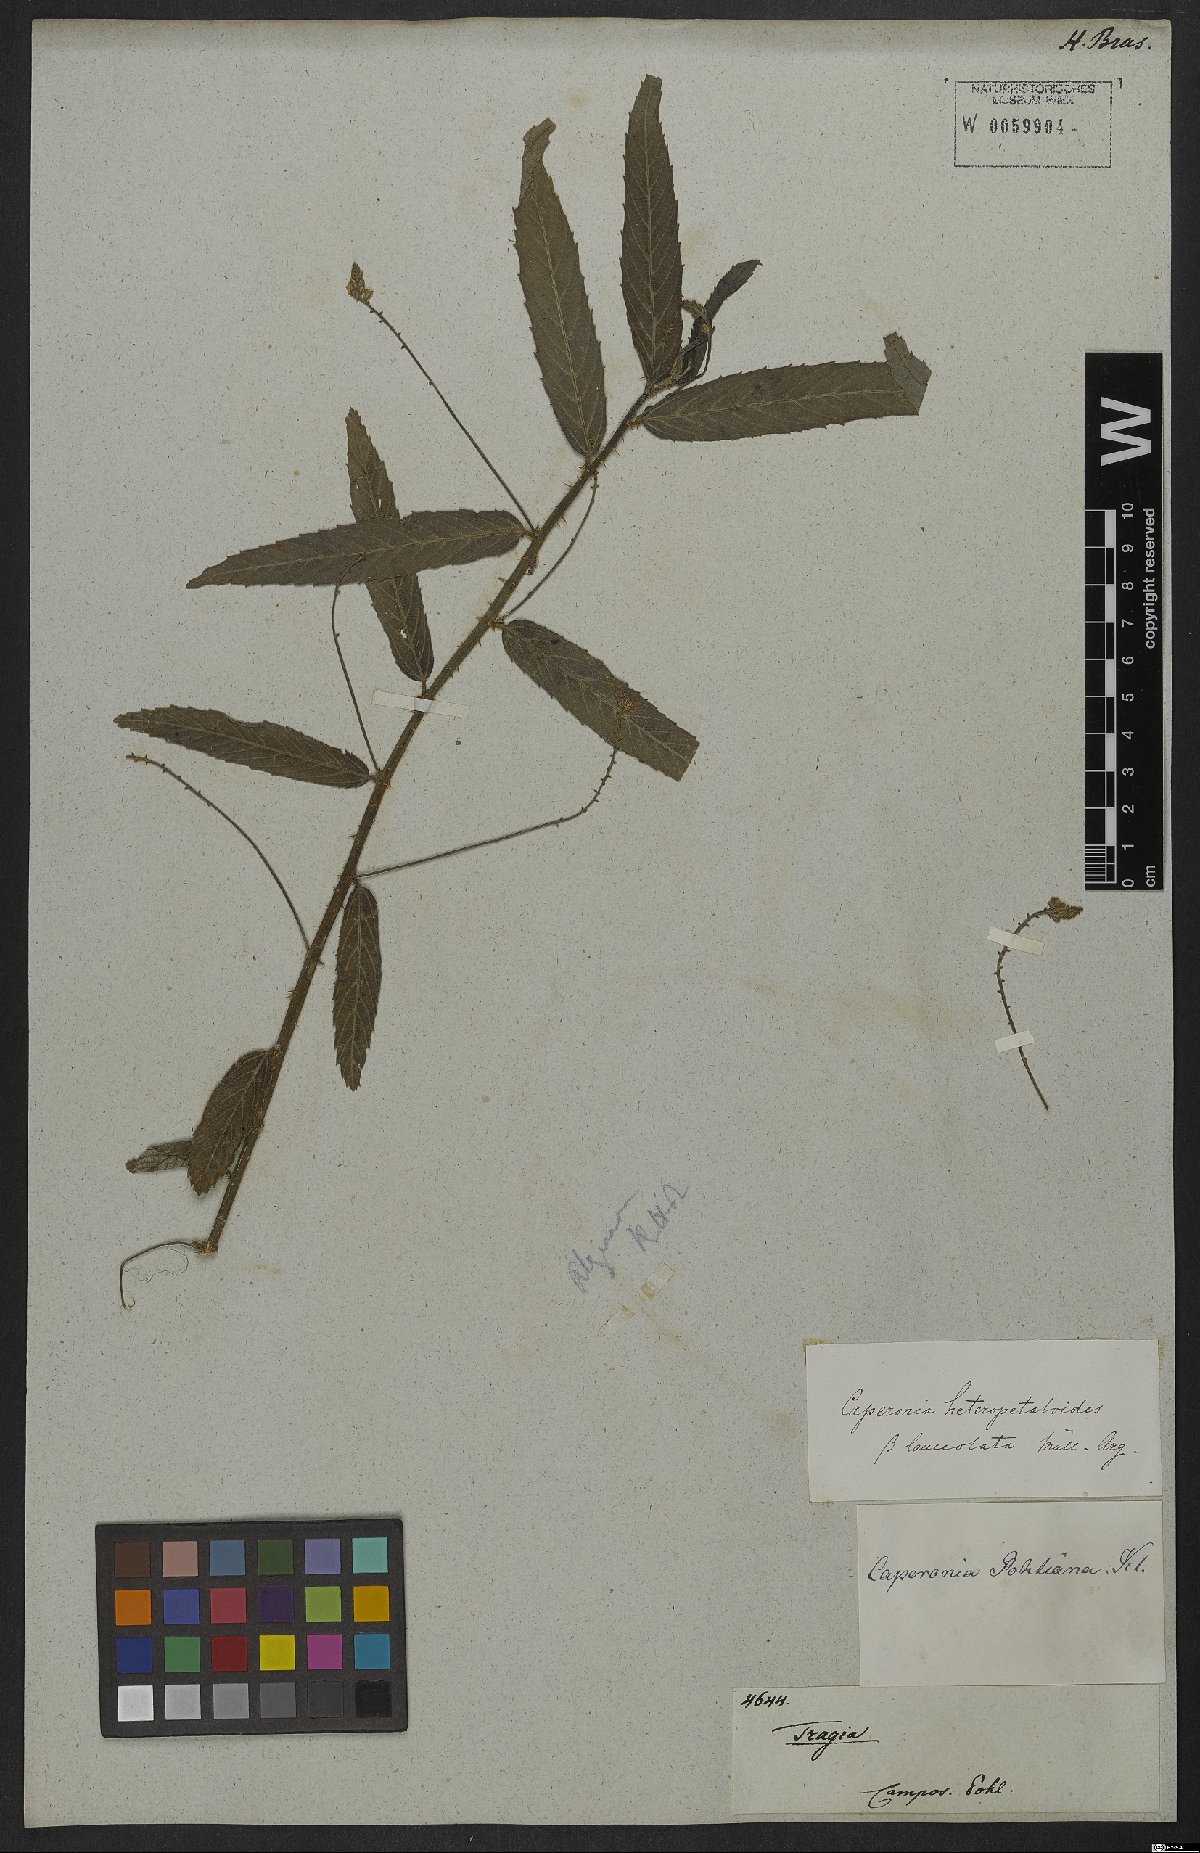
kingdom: Plantae
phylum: Tracheophyta
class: Magnoliopsida
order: Malpighiales
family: Euphorbiaceae
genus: Caperonia
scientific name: Caperonia heteropetala
